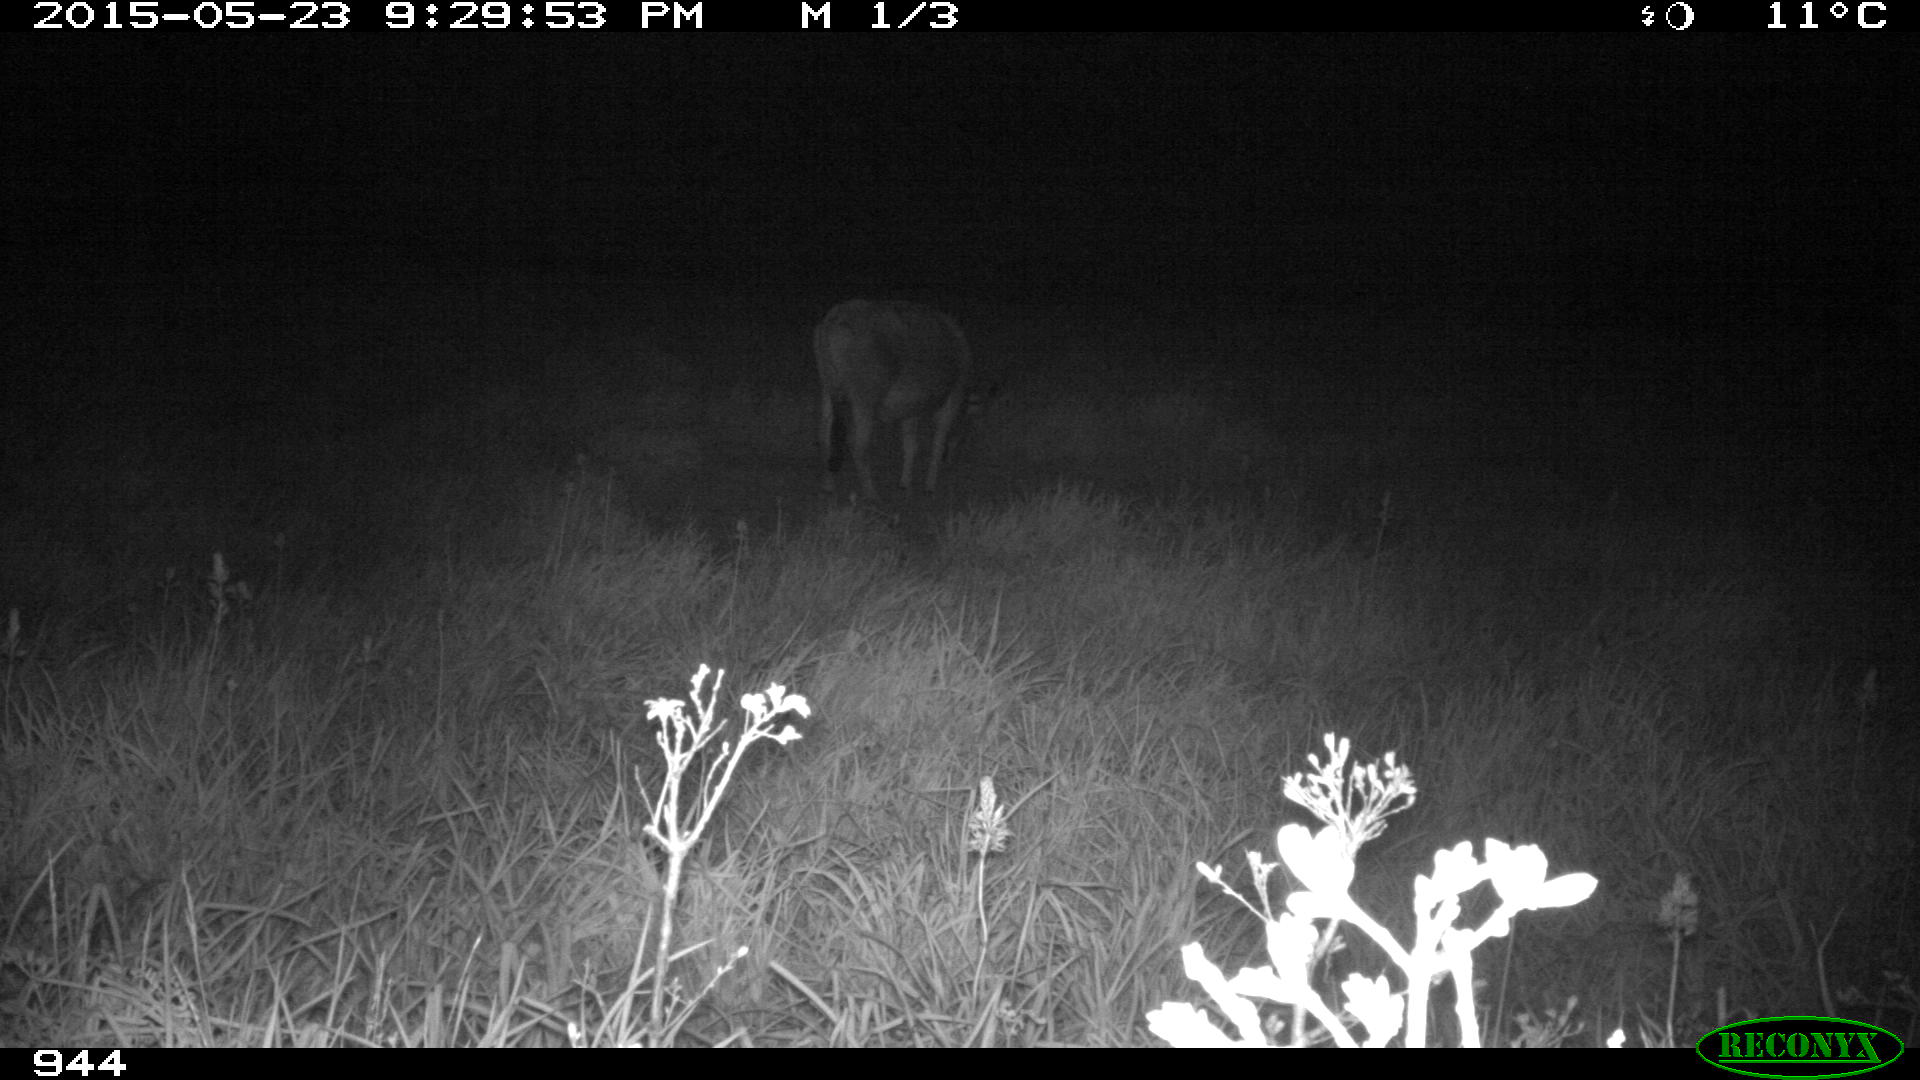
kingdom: Animalia
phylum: Chordata
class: Mammalia
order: Artiodactyla
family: Bovidae
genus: Bos
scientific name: Bos taurus
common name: Domesticated cattle
